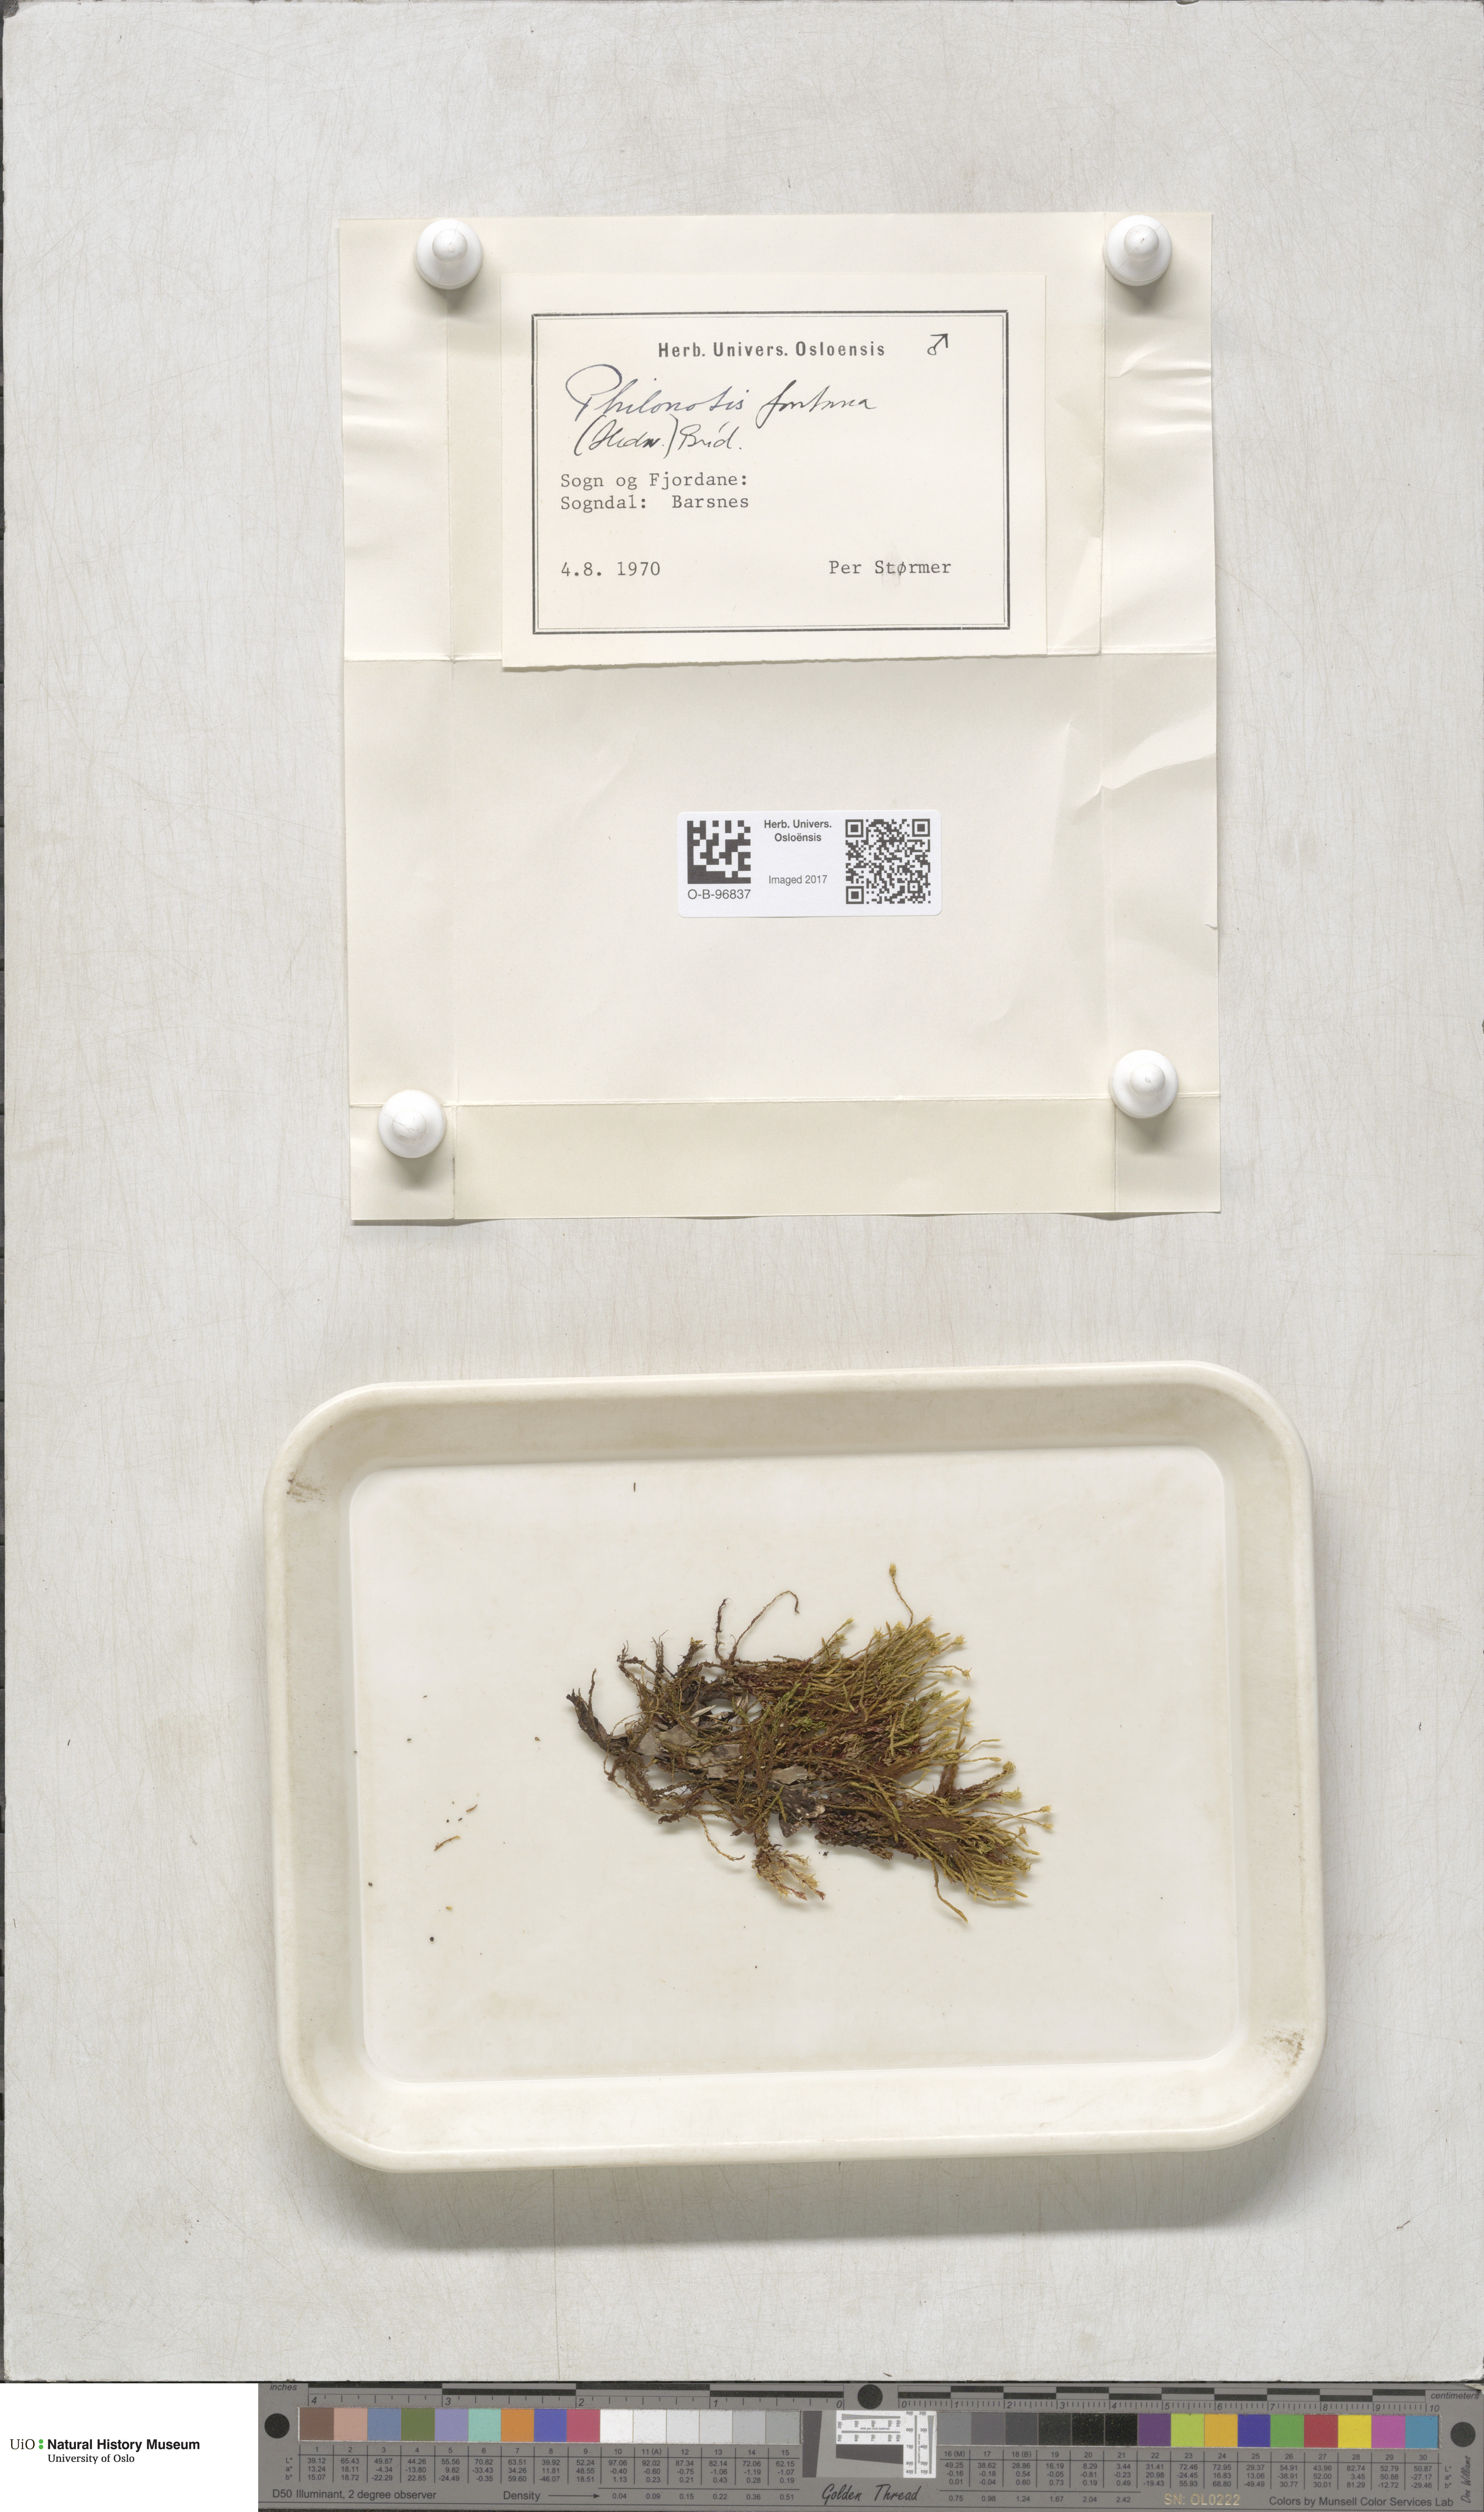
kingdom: Plantae
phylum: Bryophyta
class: Bryopsida
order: Bartramiales
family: Bartramiaceae
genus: Philonotis
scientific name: Philonotis fontana
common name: Fountain apple-moss
